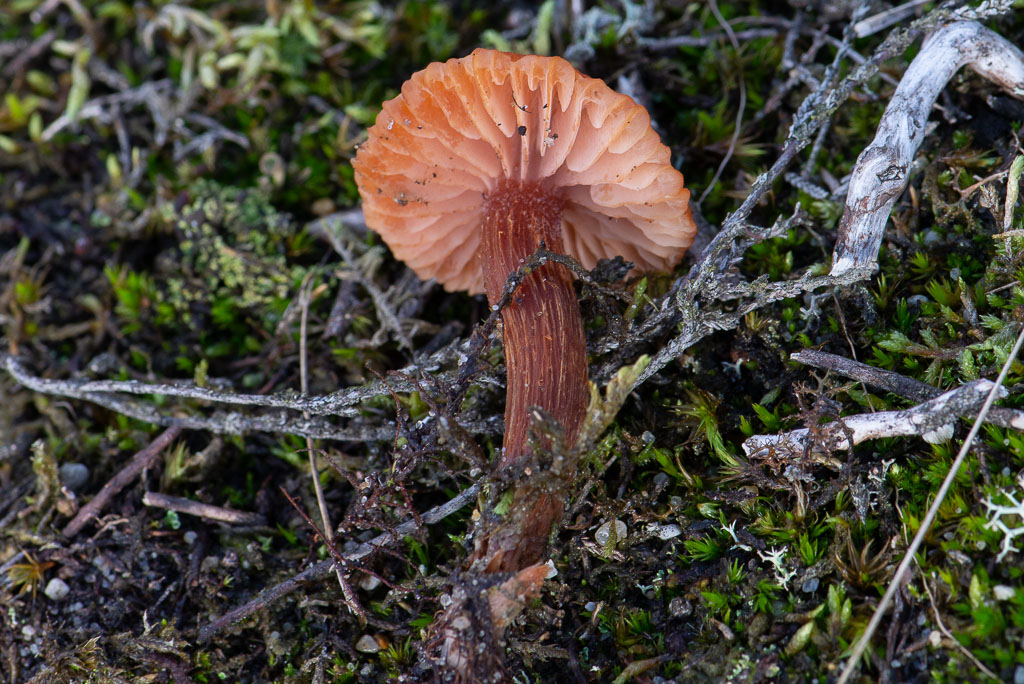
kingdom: Fungi
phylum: Basidiomycota
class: Agaricomycetes
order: Agaricales
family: Hydnangiaceae
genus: Laccaria
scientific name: Laccaria proxima
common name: stor ametysthat
